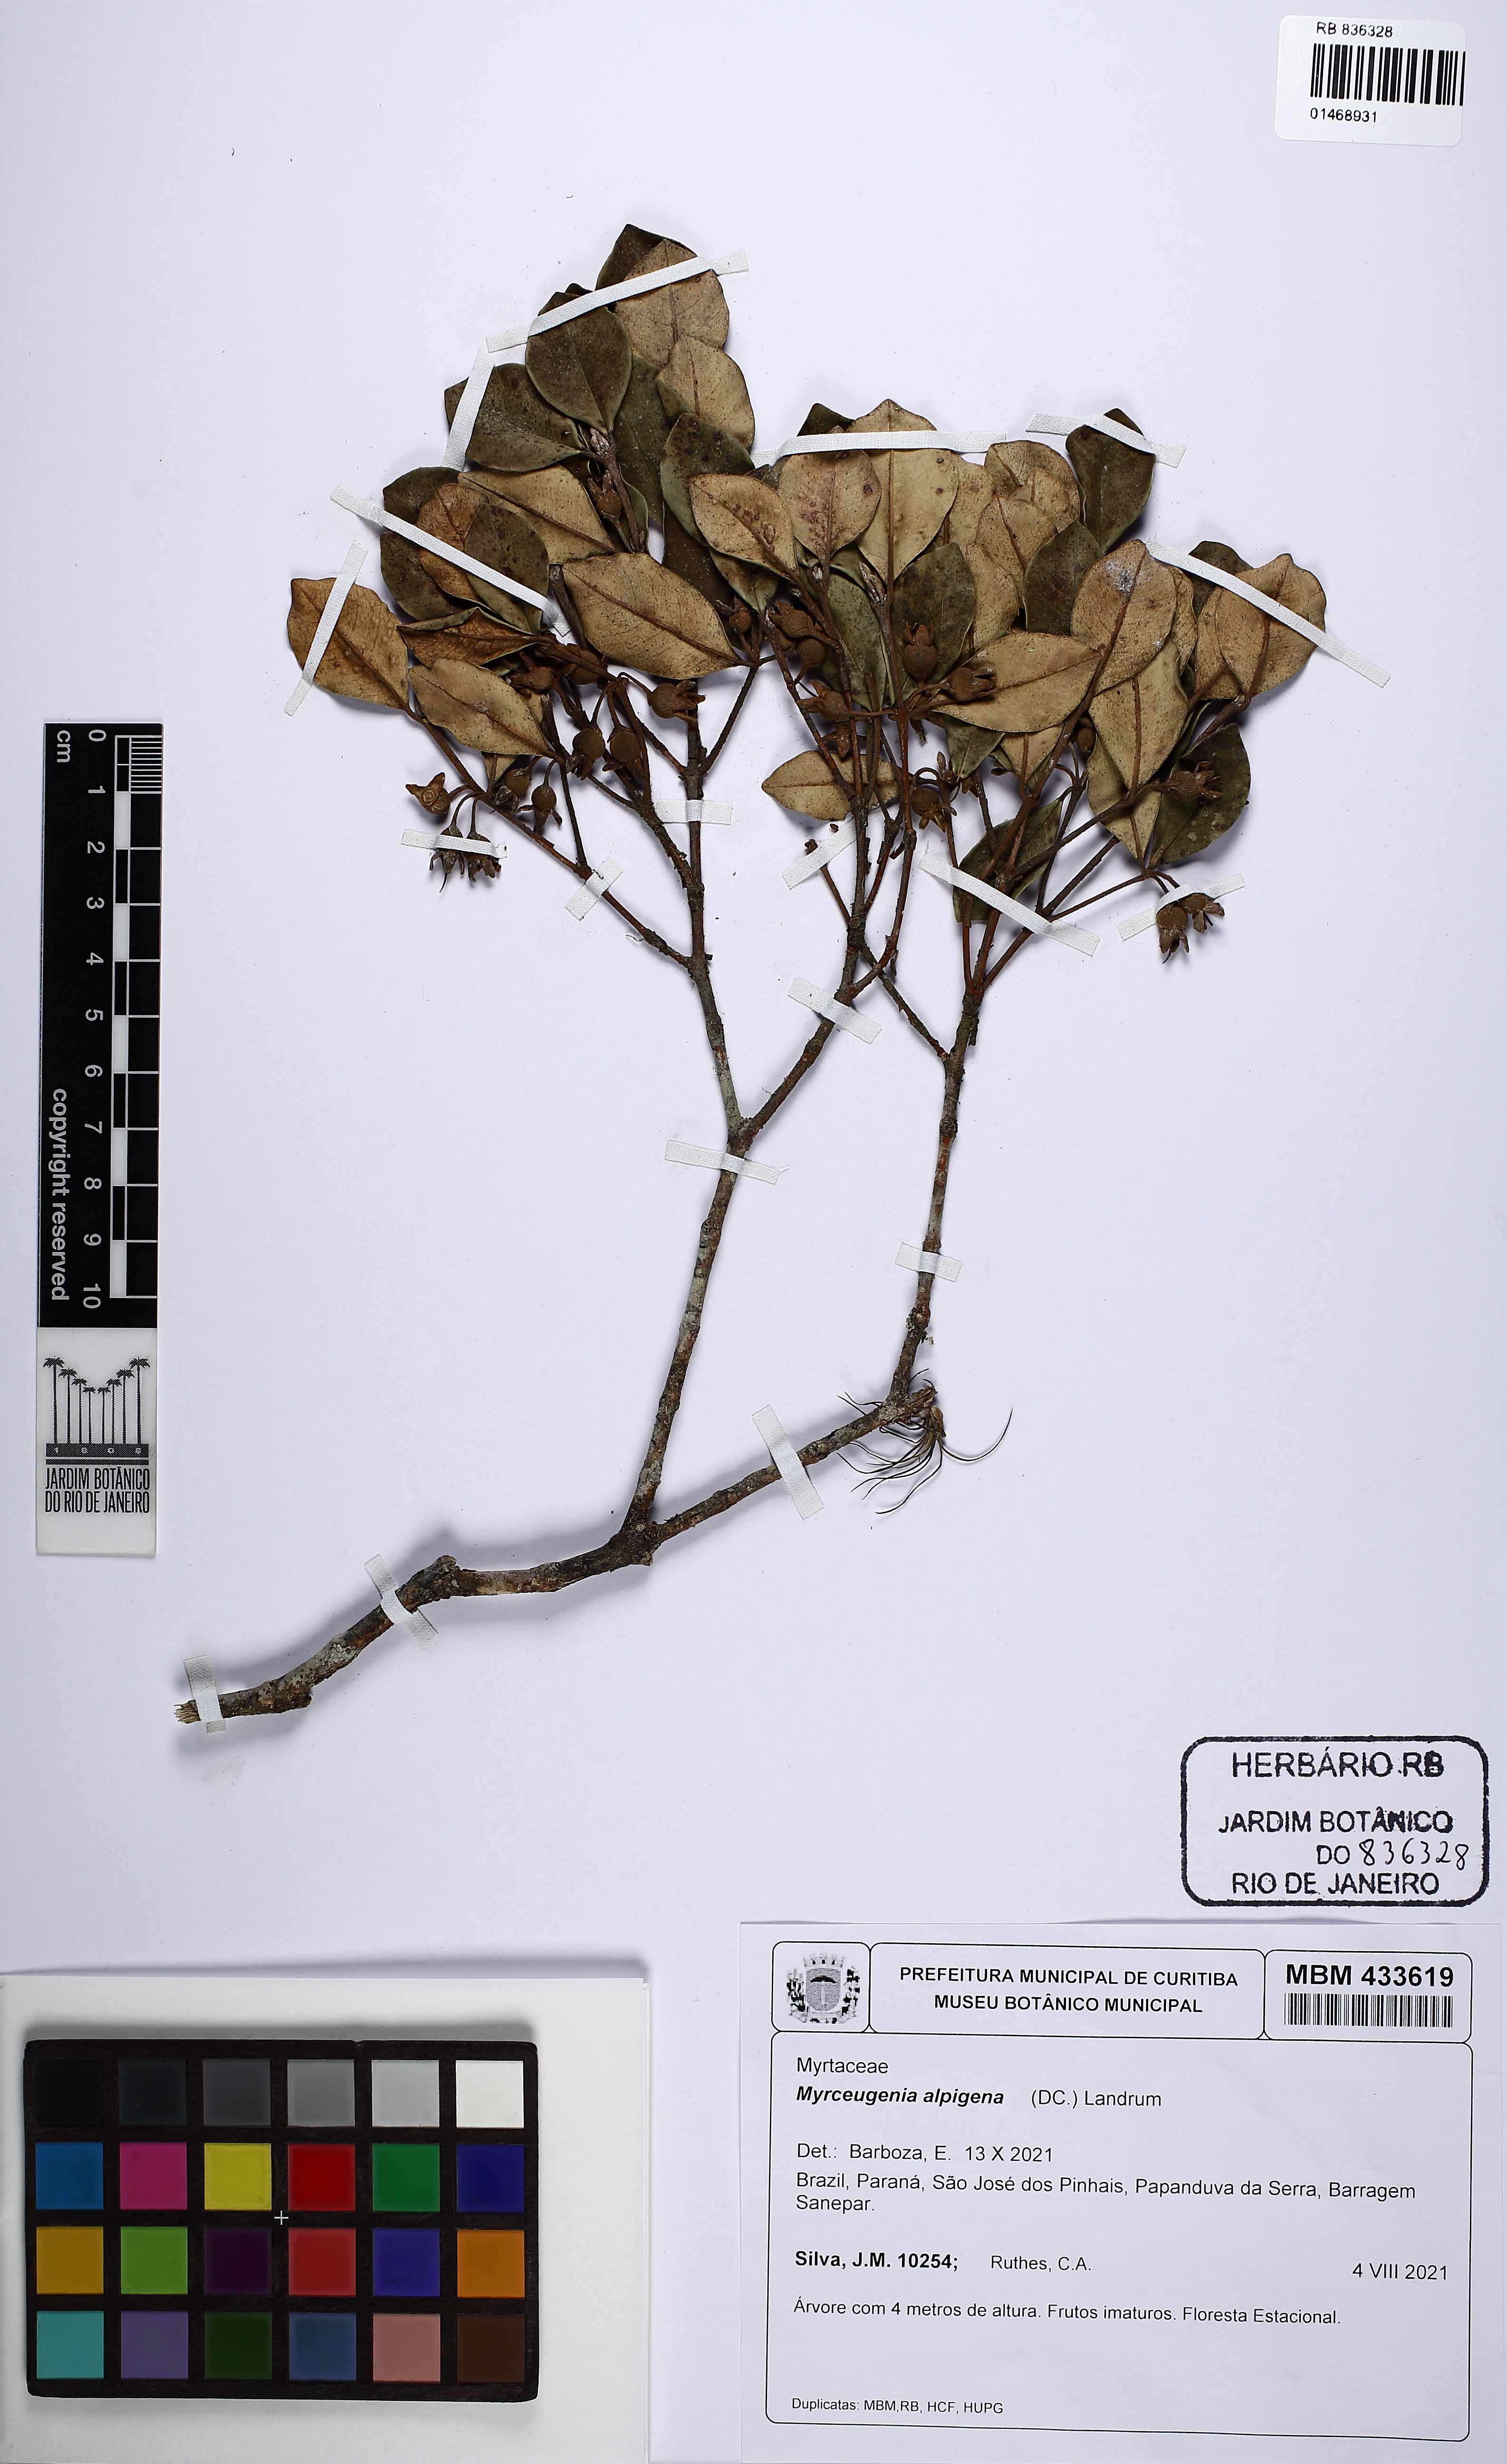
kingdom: Plantae
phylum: Tracheophyta
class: Magnoliopsida
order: Myrtales
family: Myrtaceae
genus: Myrceugenia
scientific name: Myrceugenia alpigena
